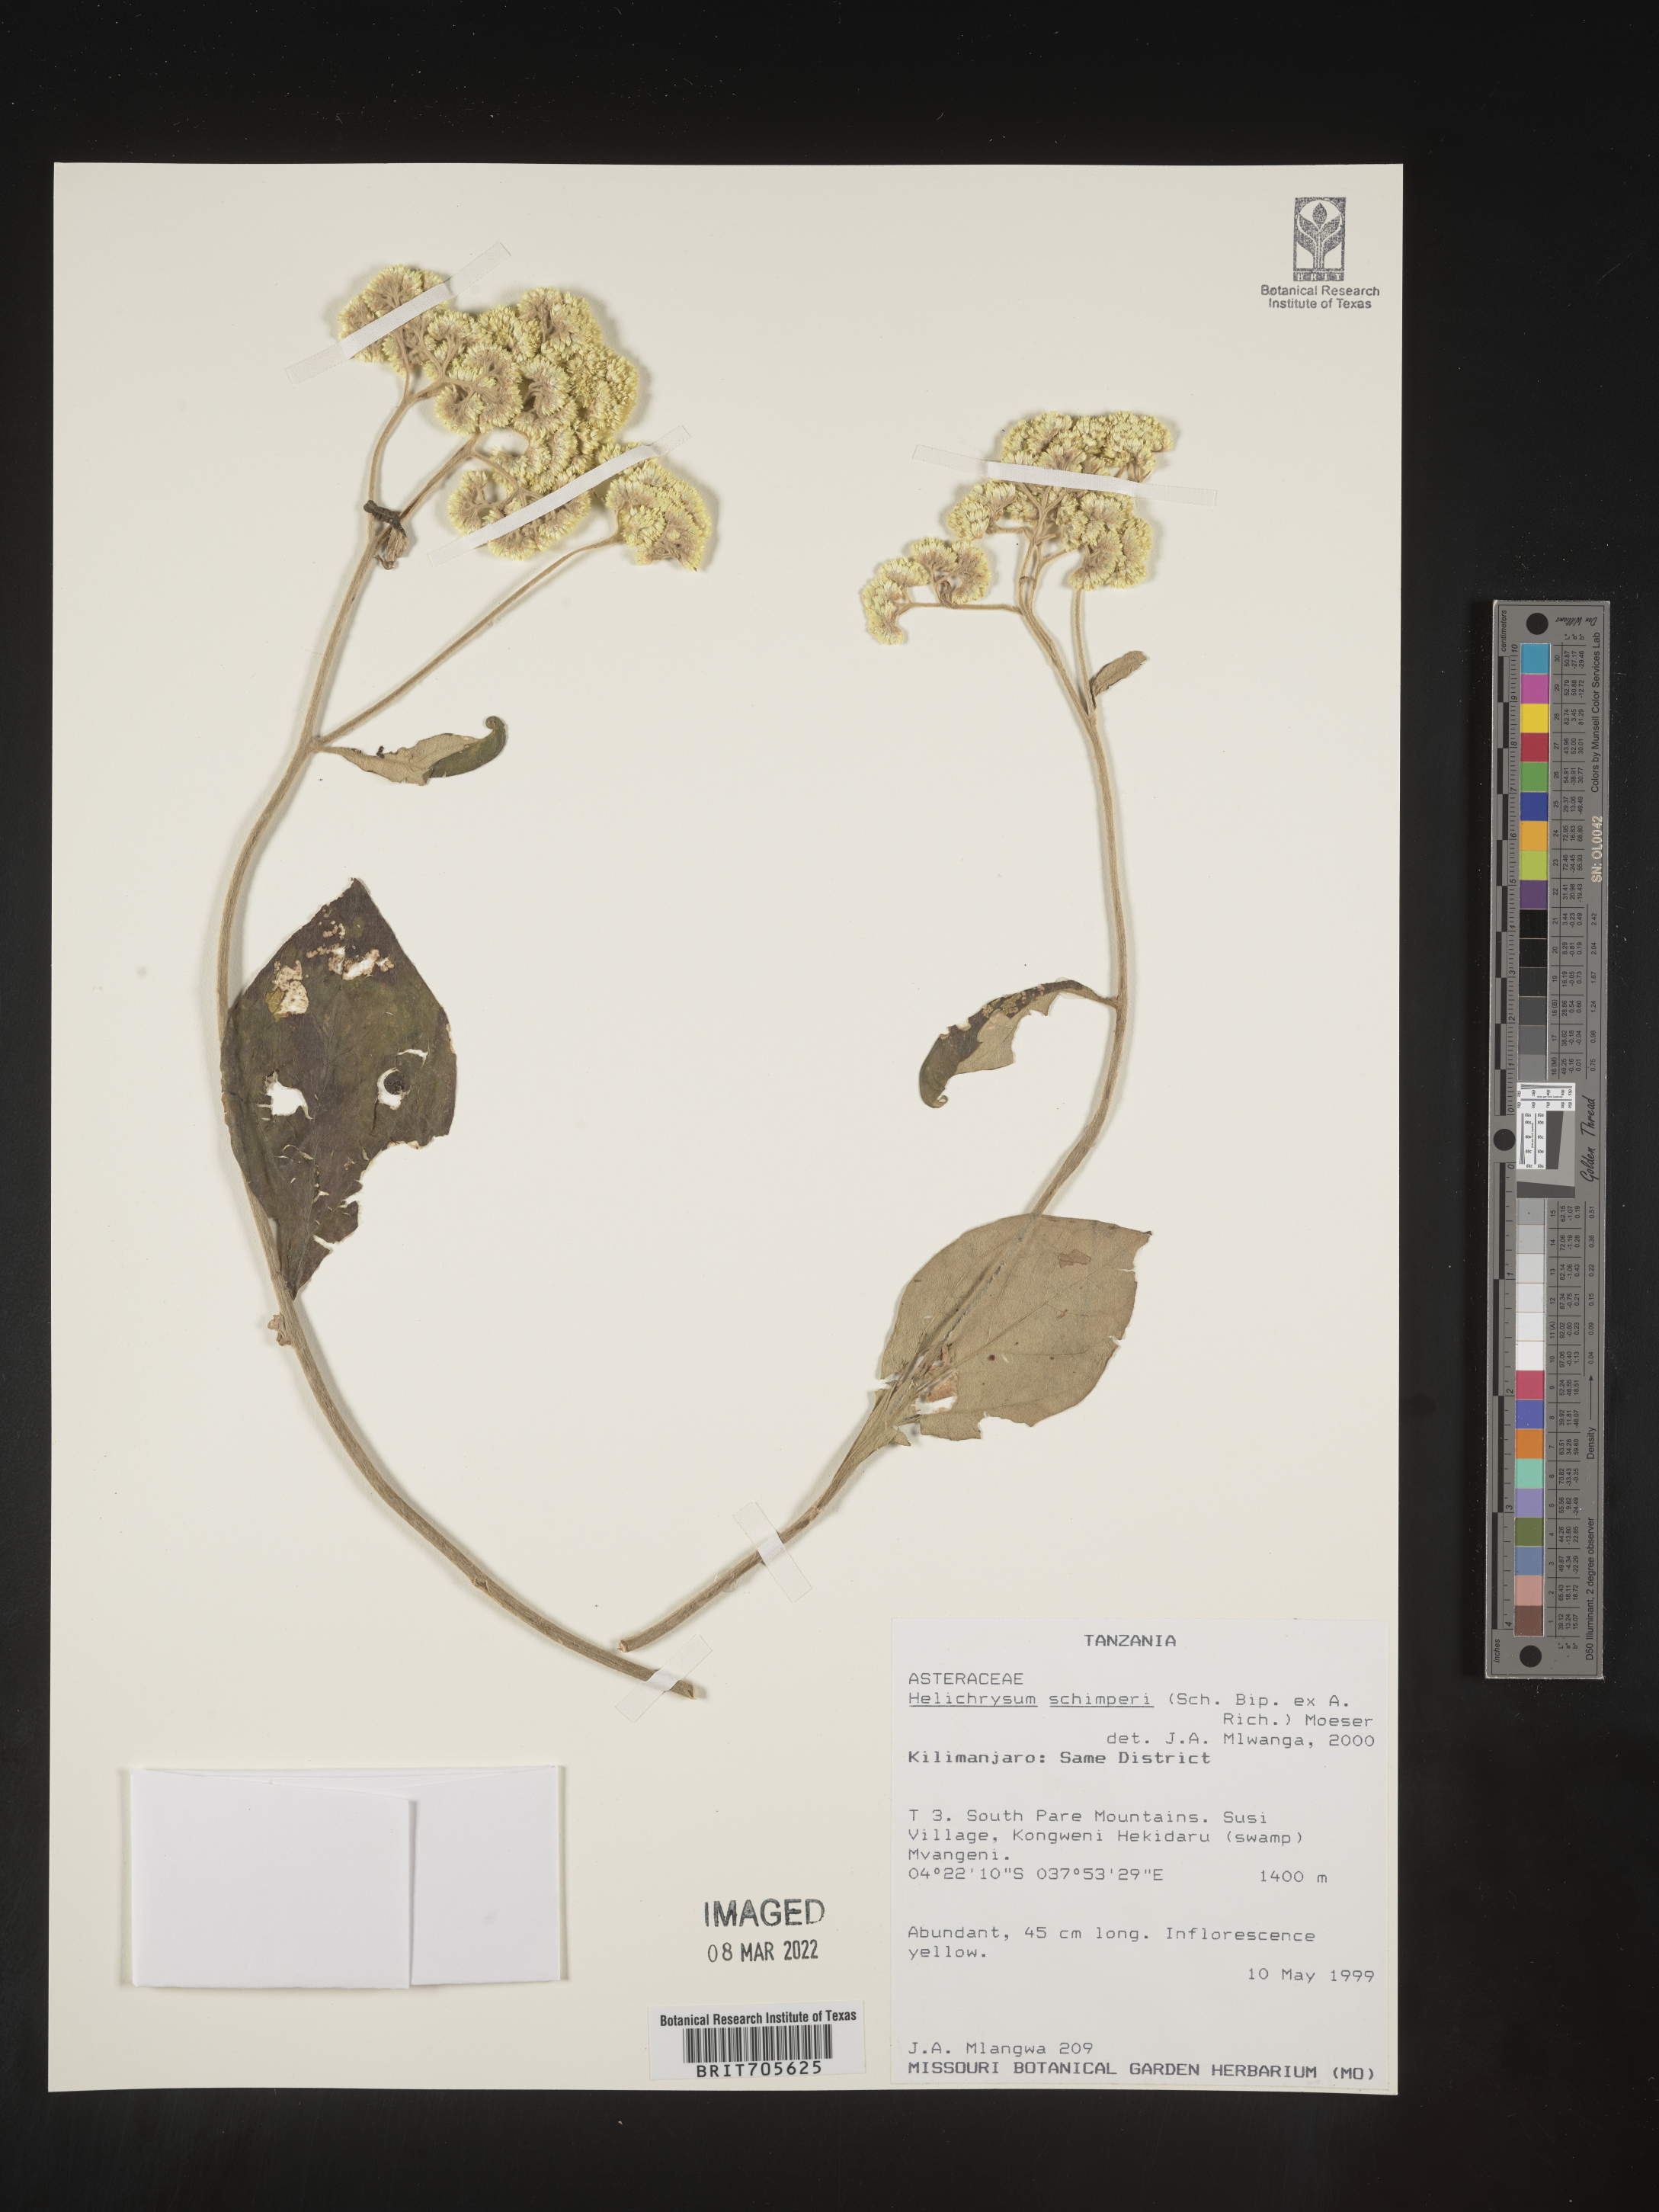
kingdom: Plantae
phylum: Tracheophyta
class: Magnoliopsida
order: Asterales
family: Asteraceae
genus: Helichrysum
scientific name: Helichrysum schimperi
